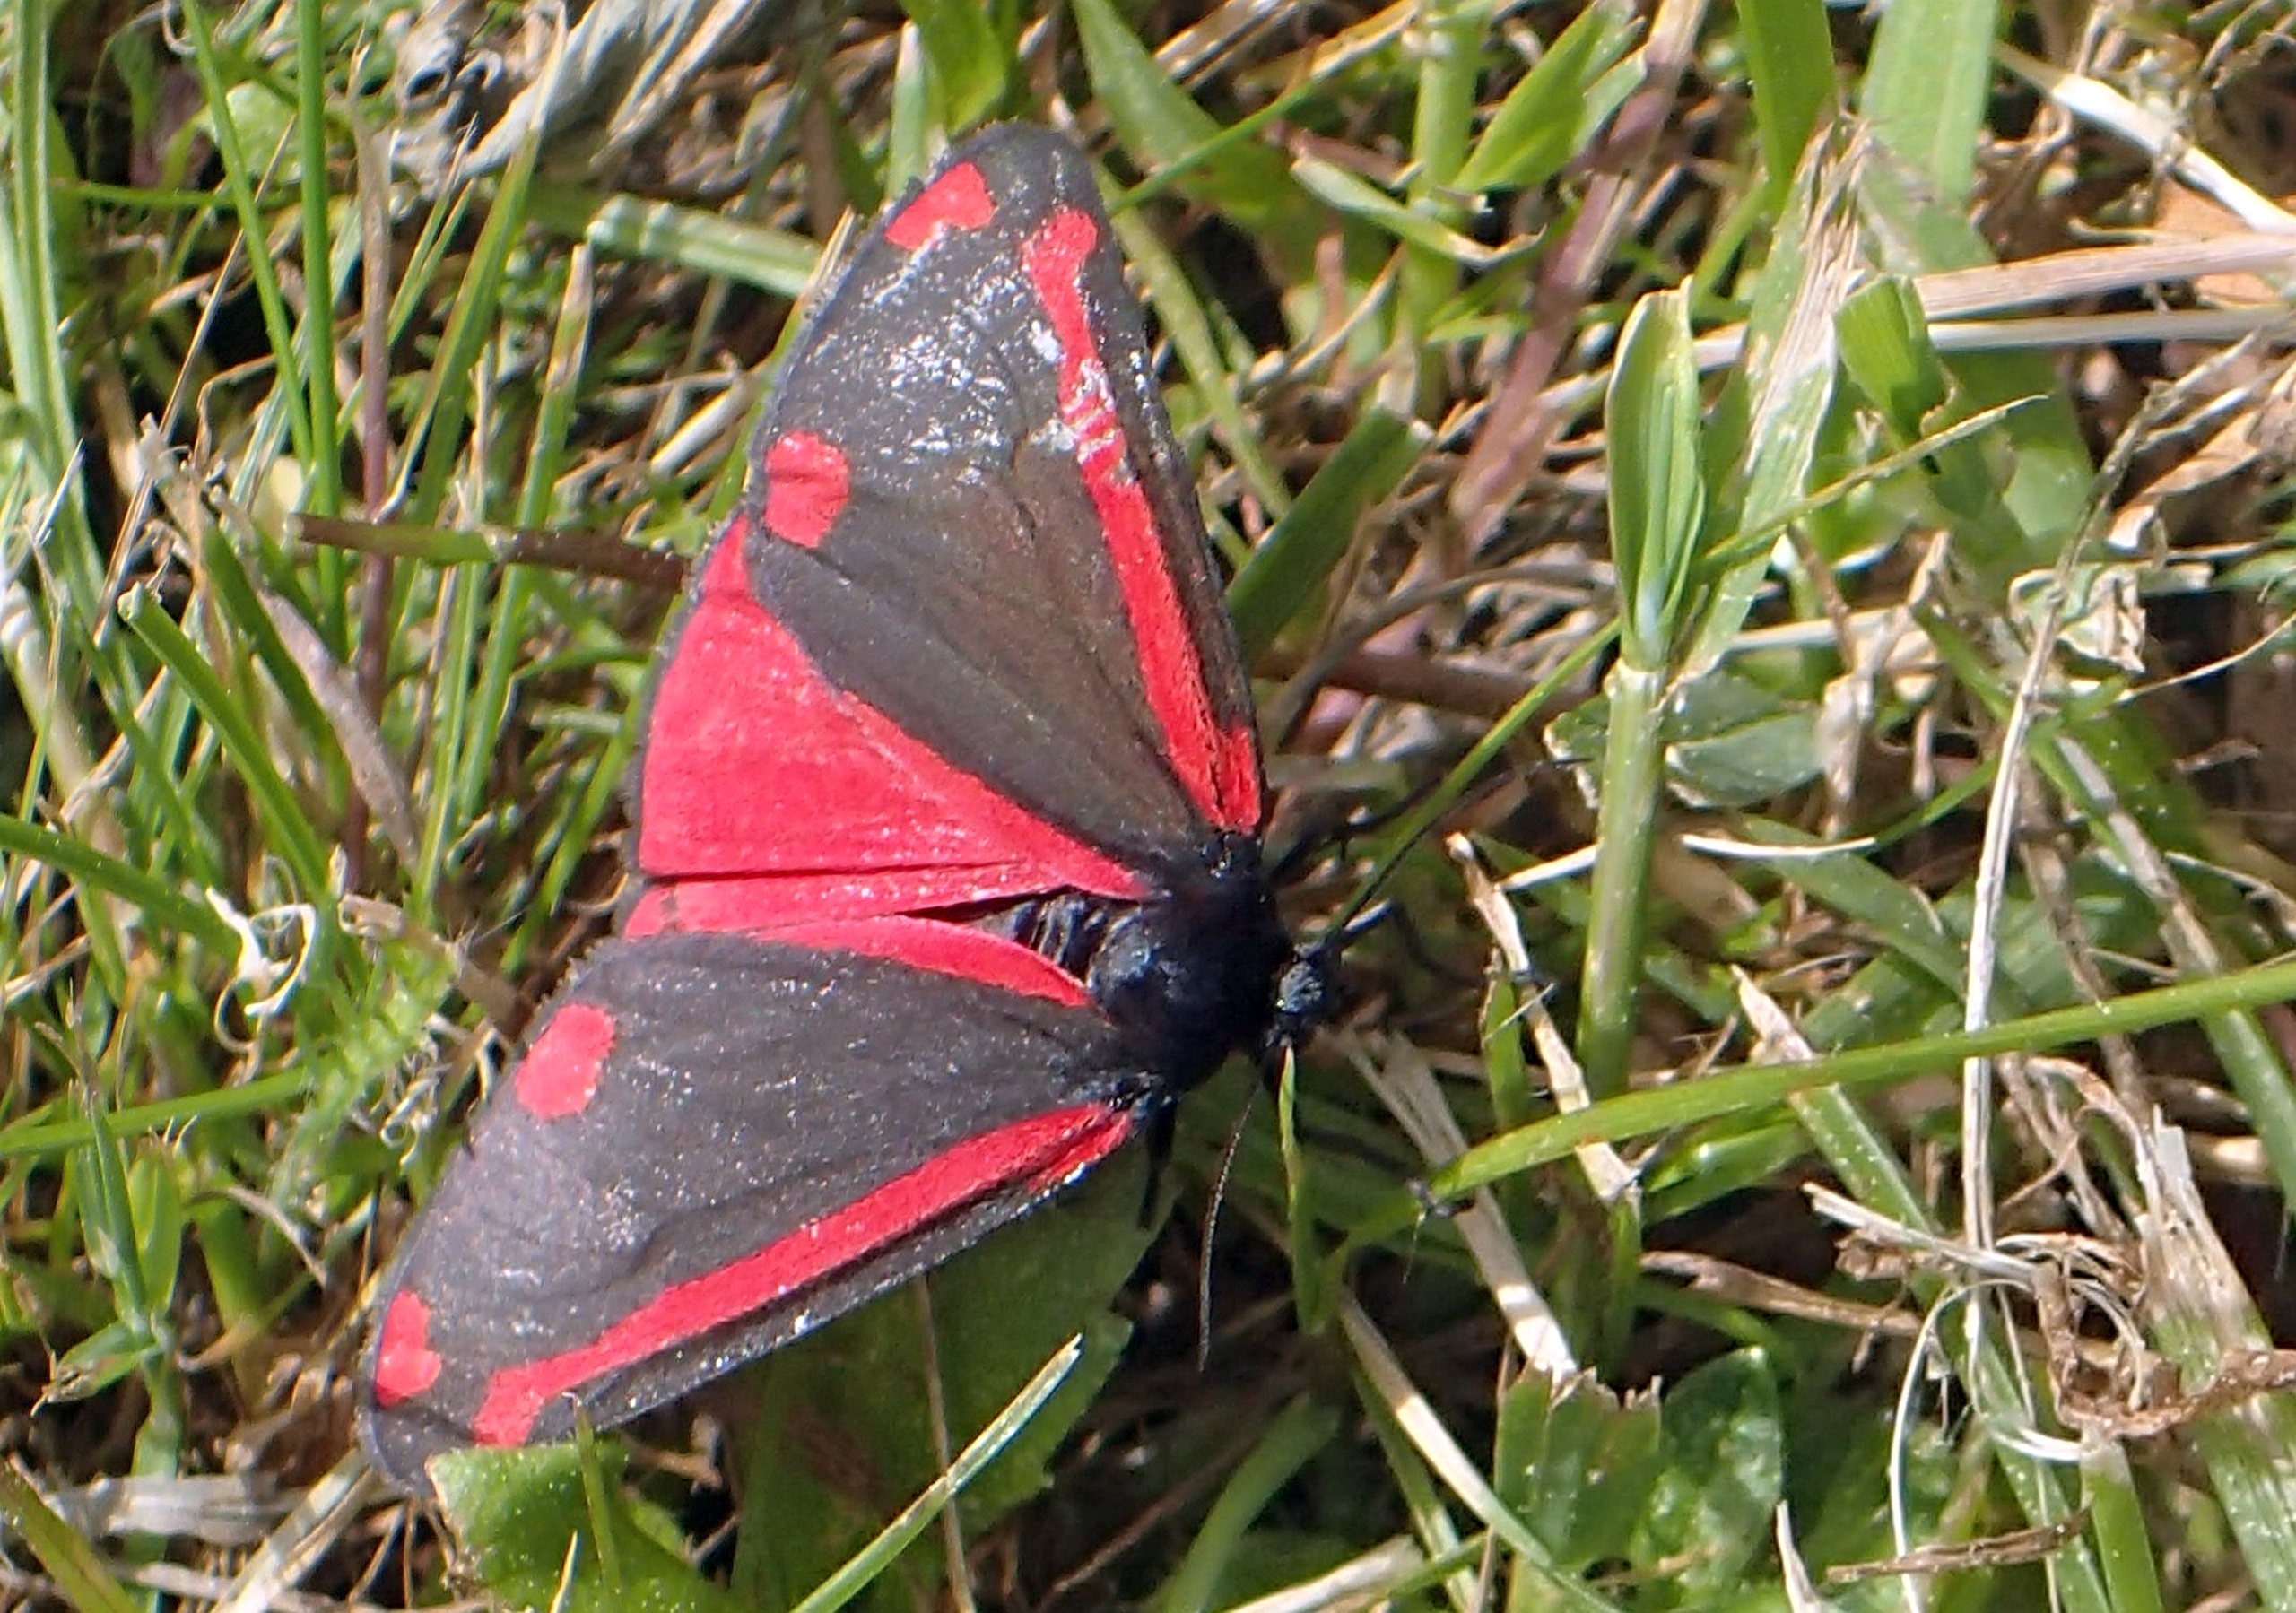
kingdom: Animalia
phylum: Arthropoda
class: Insecta
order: Lepidoptera
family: Erebidae
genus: Tyria
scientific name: Tyria jacobaeae
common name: Blodplet
